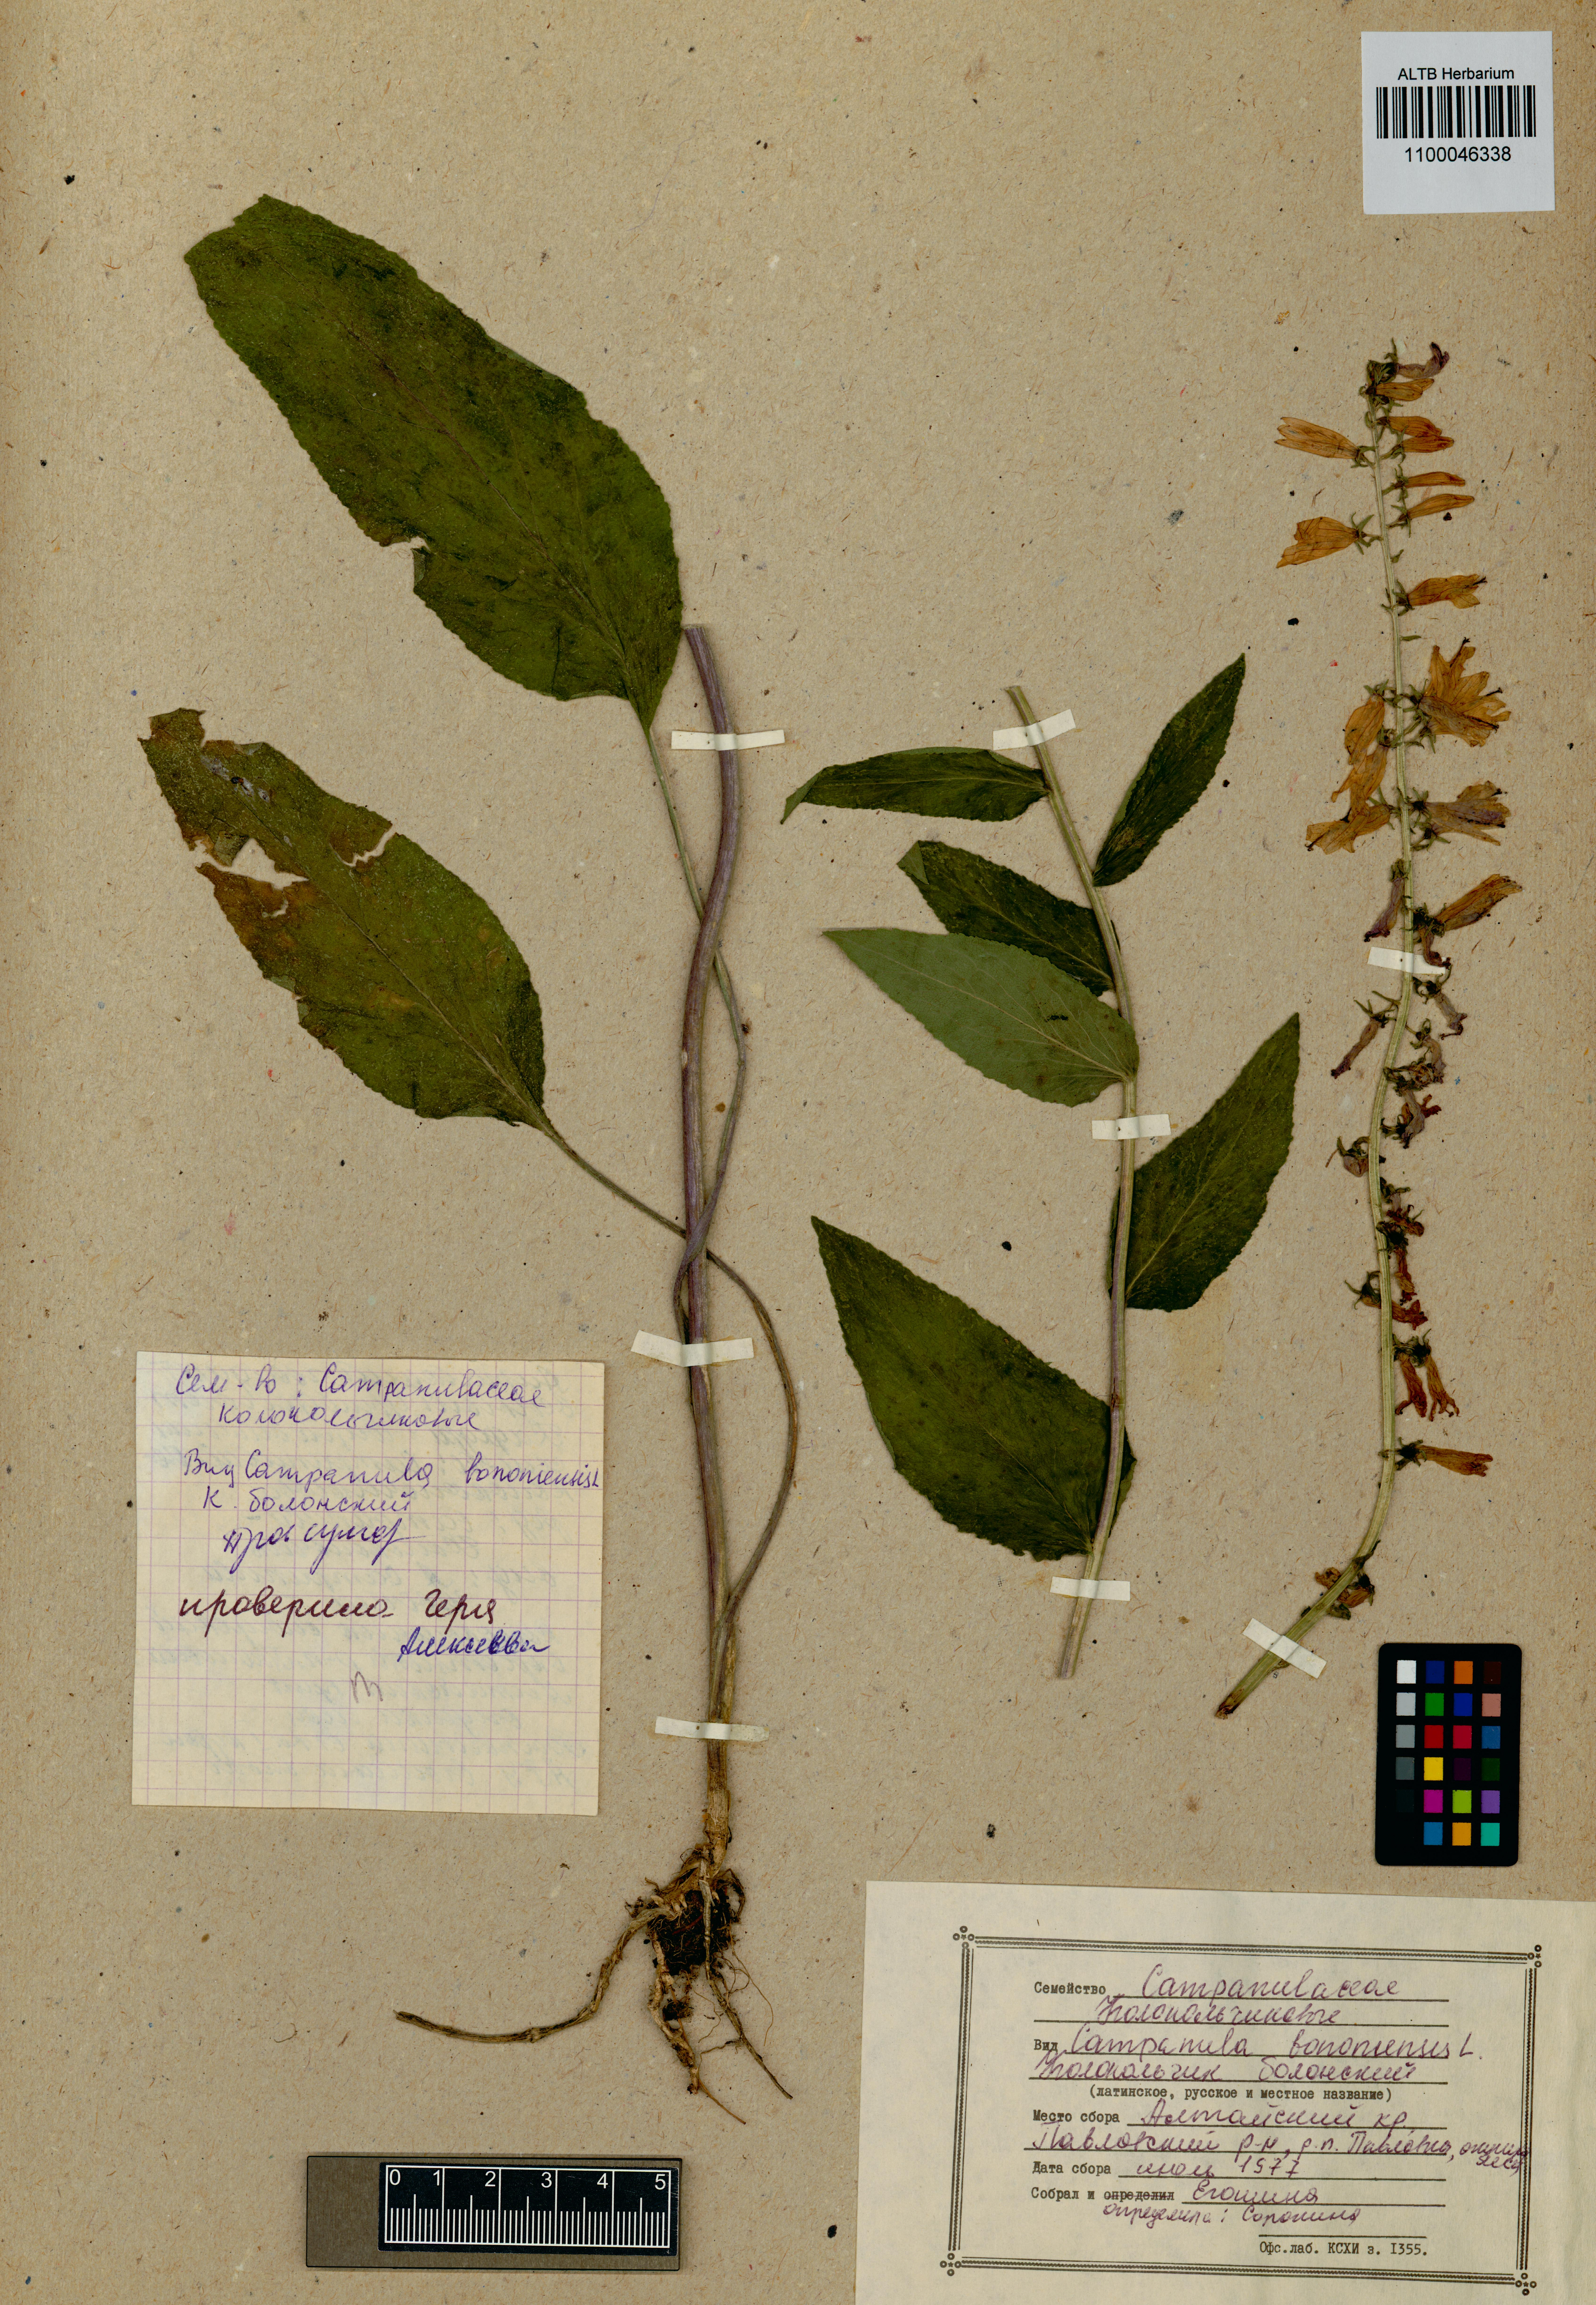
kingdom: Plantae
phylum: Tracheophyta
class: Magnoliopsida
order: Asterales
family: Campanulaceae
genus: Campanula
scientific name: Campanula bononiensis
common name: Pale bellflower
